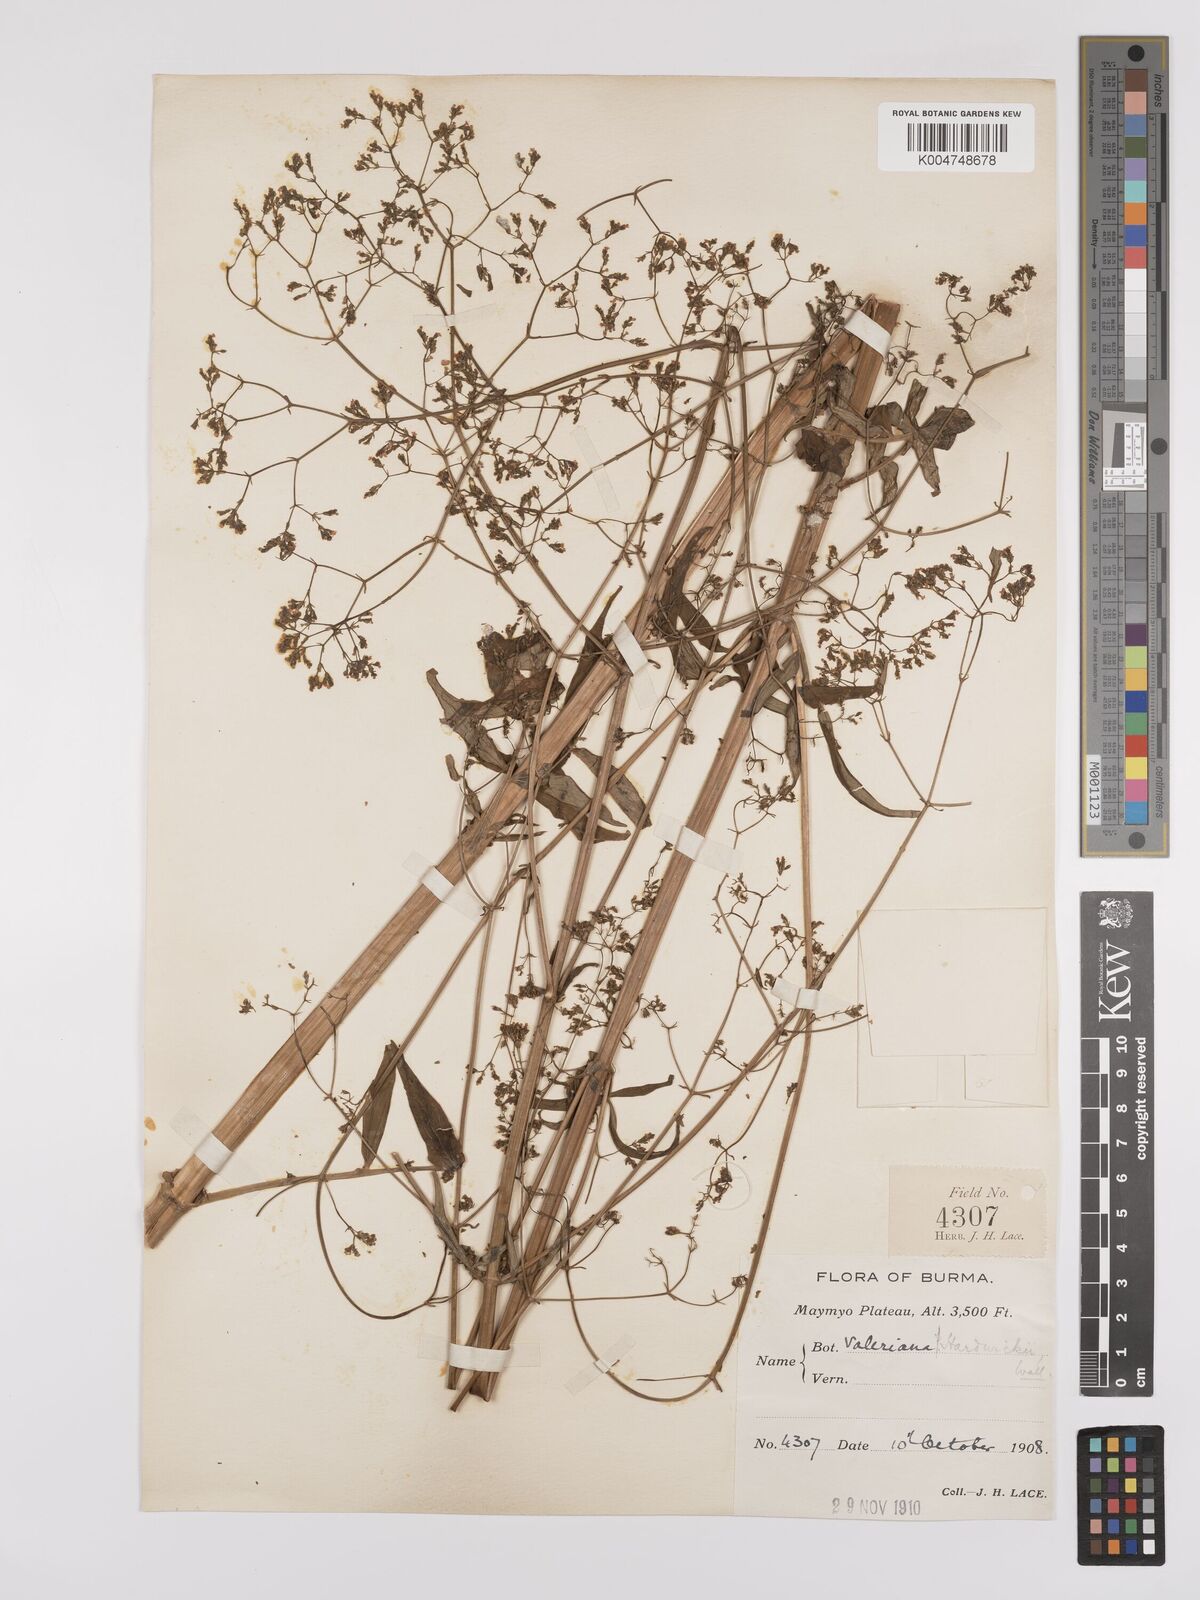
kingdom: Plantae
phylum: Tracheophyta
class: Magnoliopsida
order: Dipsacales
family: Caprifoliaceae
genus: Valeriana
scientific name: Valeriana hardwickei
